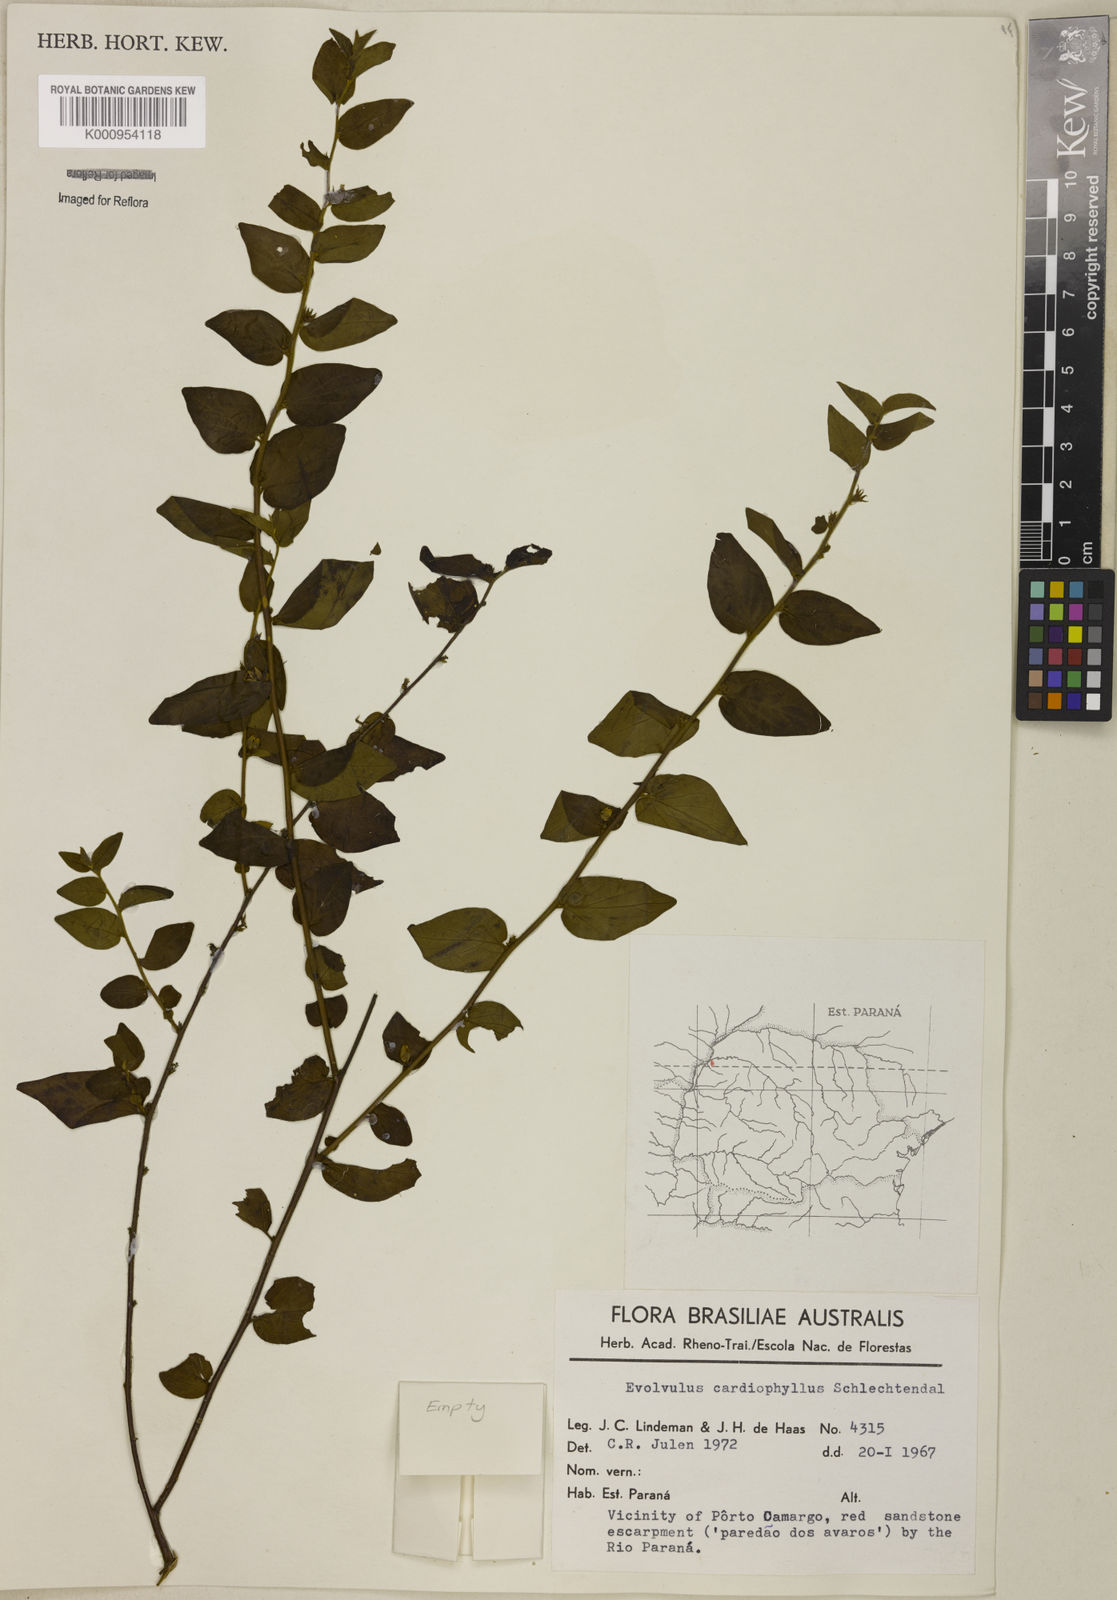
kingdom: Plantae
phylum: Tracheophyta
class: Magnoliopsida
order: Solanales
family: Convolvulaceae
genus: Evolvulus
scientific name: Evolvulus cardiophyllus
